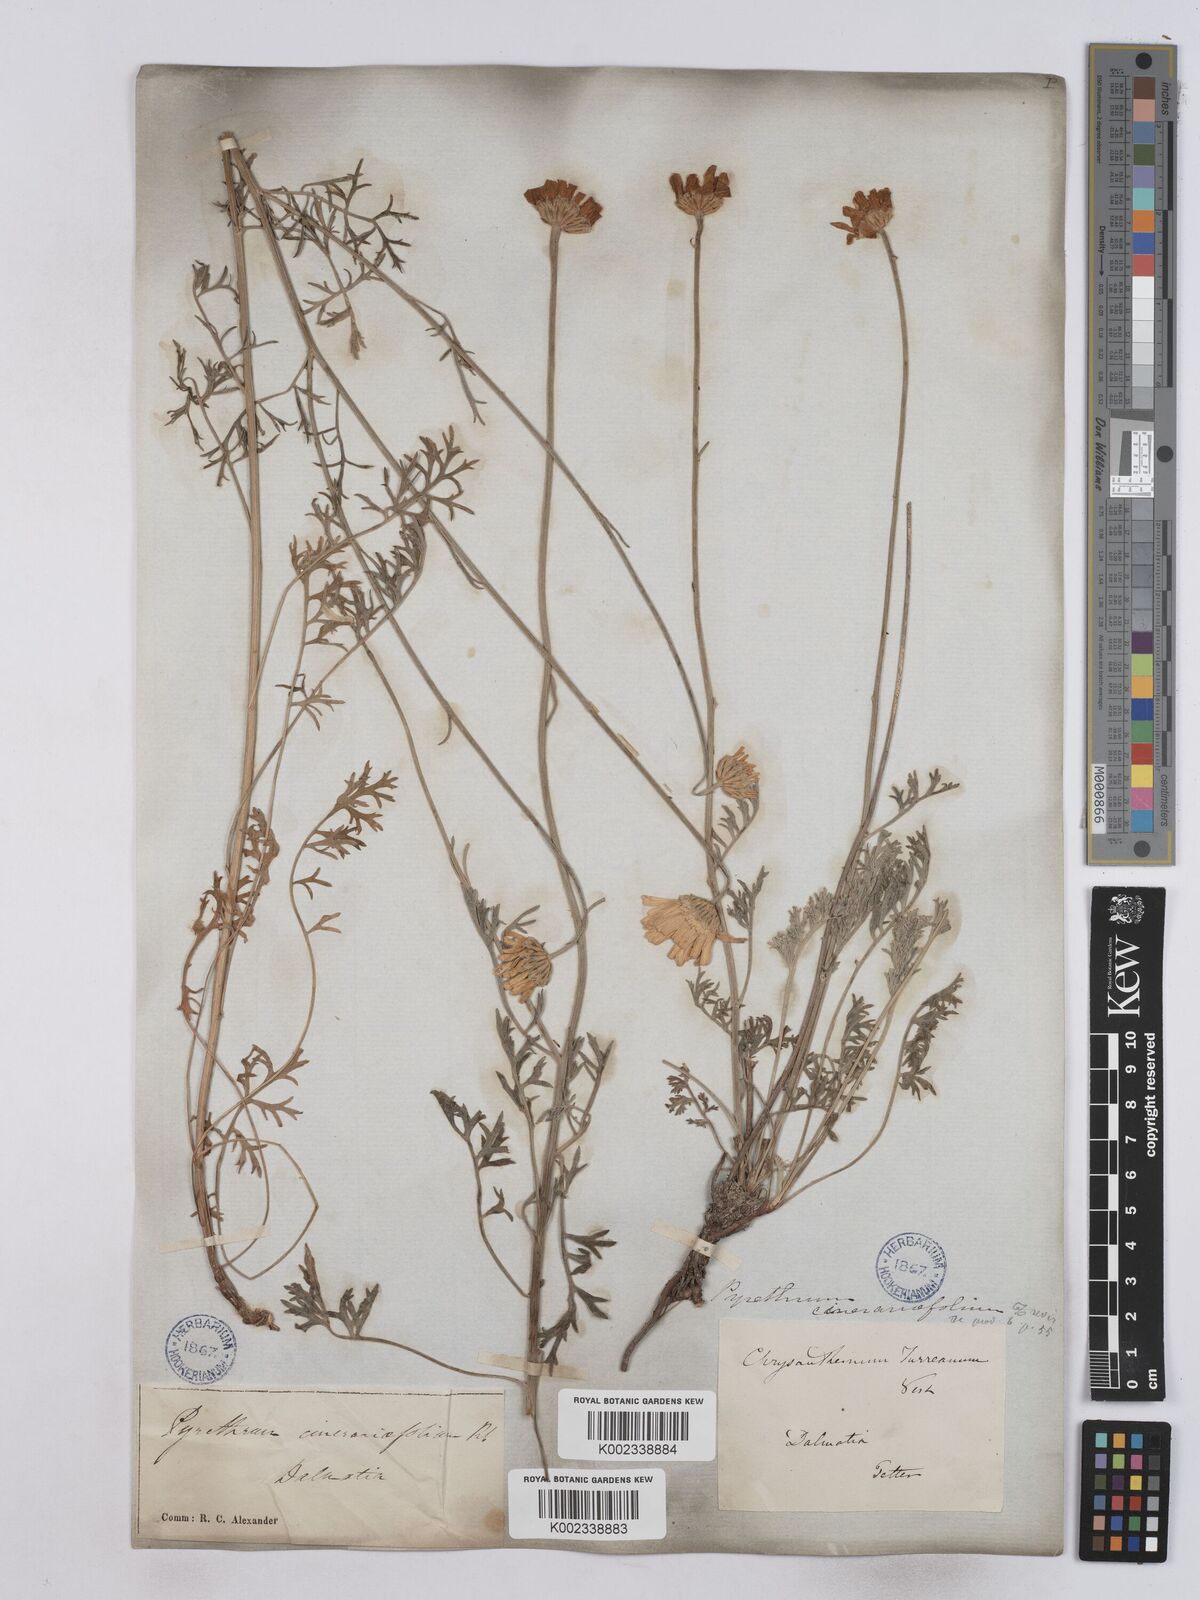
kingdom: Plantae
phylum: Tracheophyta
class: Magnoliopsida
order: Asterales
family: Asteraceae
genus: Tanacetum
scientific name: Tanacetum cinerariifolium
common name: Dalmatian pyrethrum
